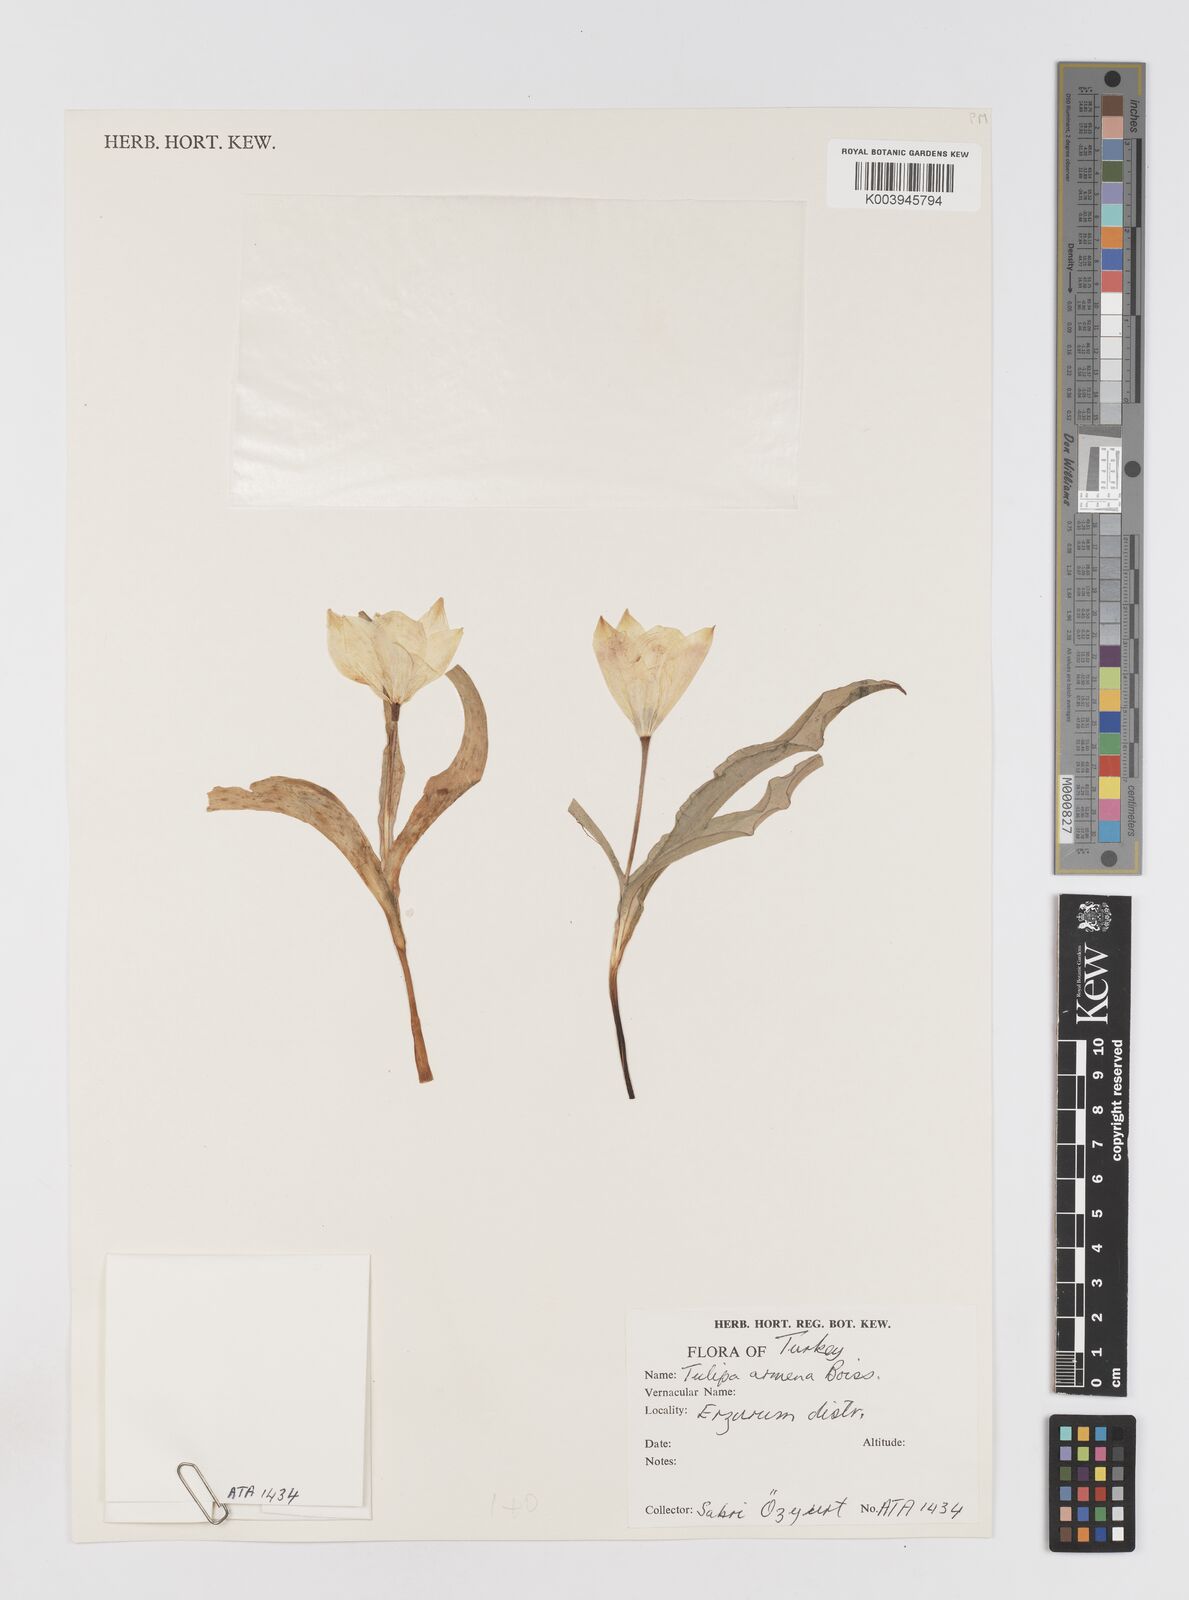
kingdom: Plantae
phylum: Tracheophyta
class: Liliopsida
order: Liliales
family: Liliaceae
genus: Tulipa
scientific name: Tulipa armena
